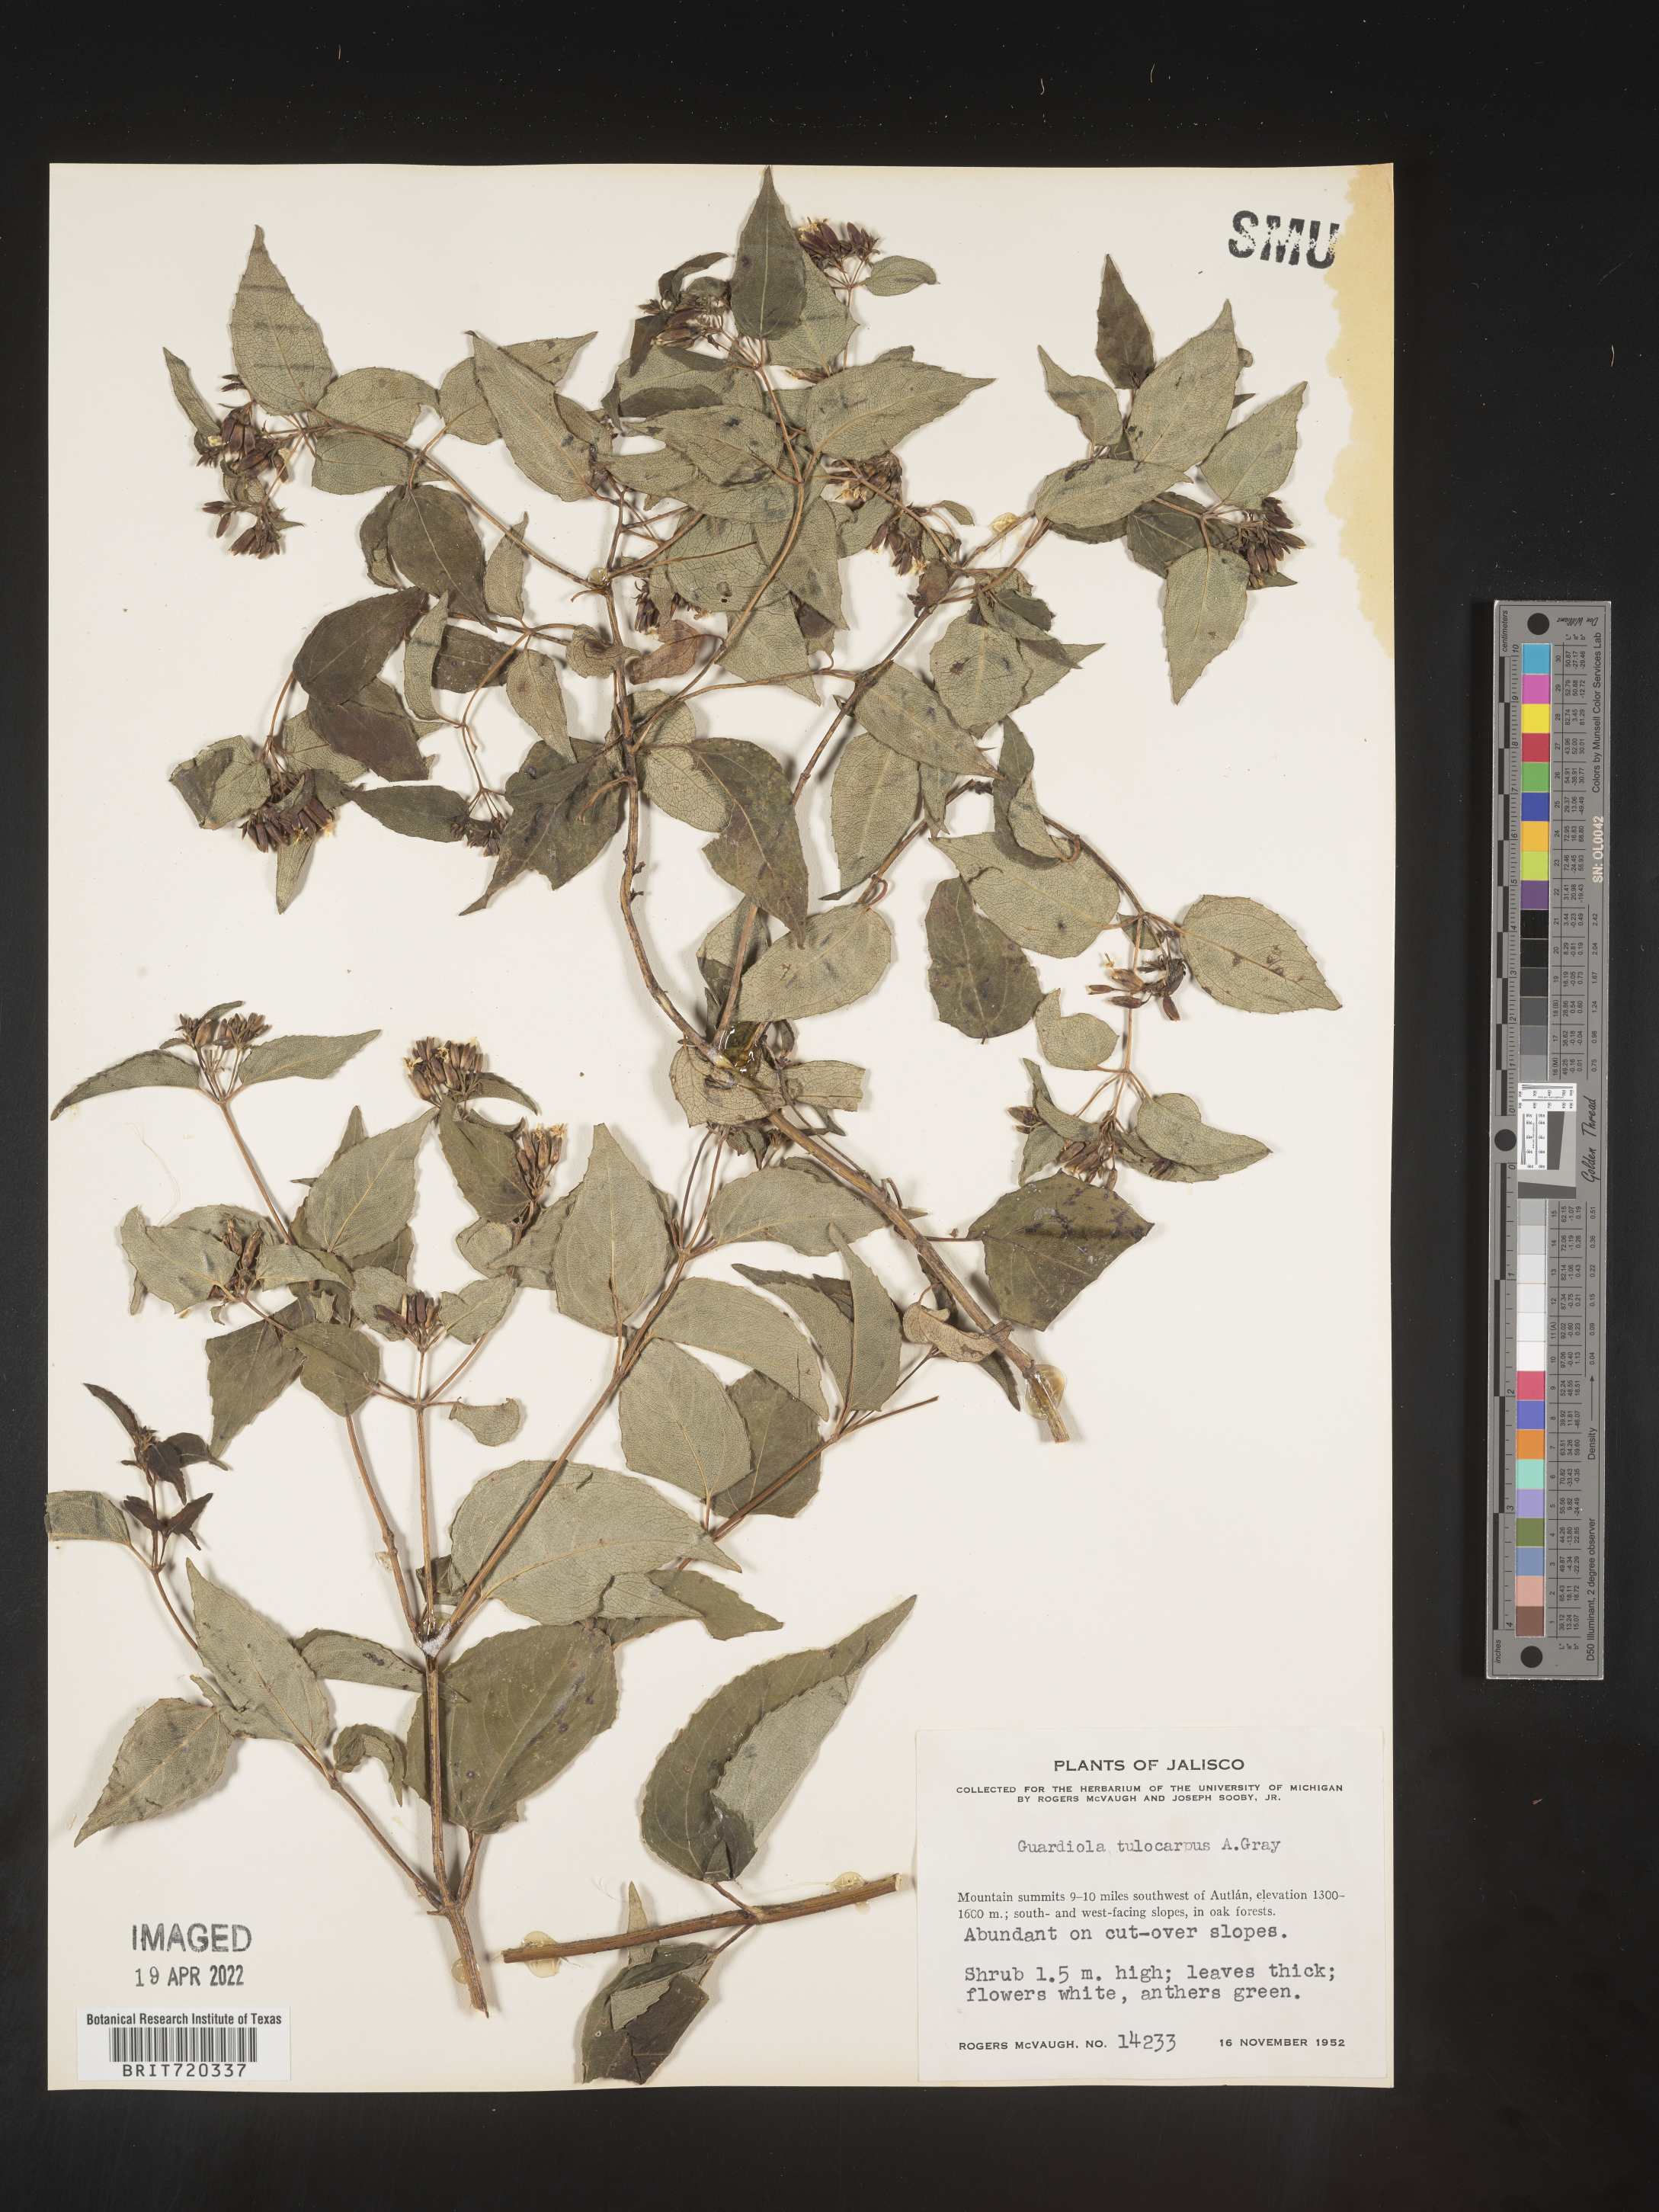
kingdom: Plantae
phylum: Tracheophyta
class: Magnoliopsida
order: Asterales
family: Asteraceae
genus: Guardiola
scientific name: Guardiola
